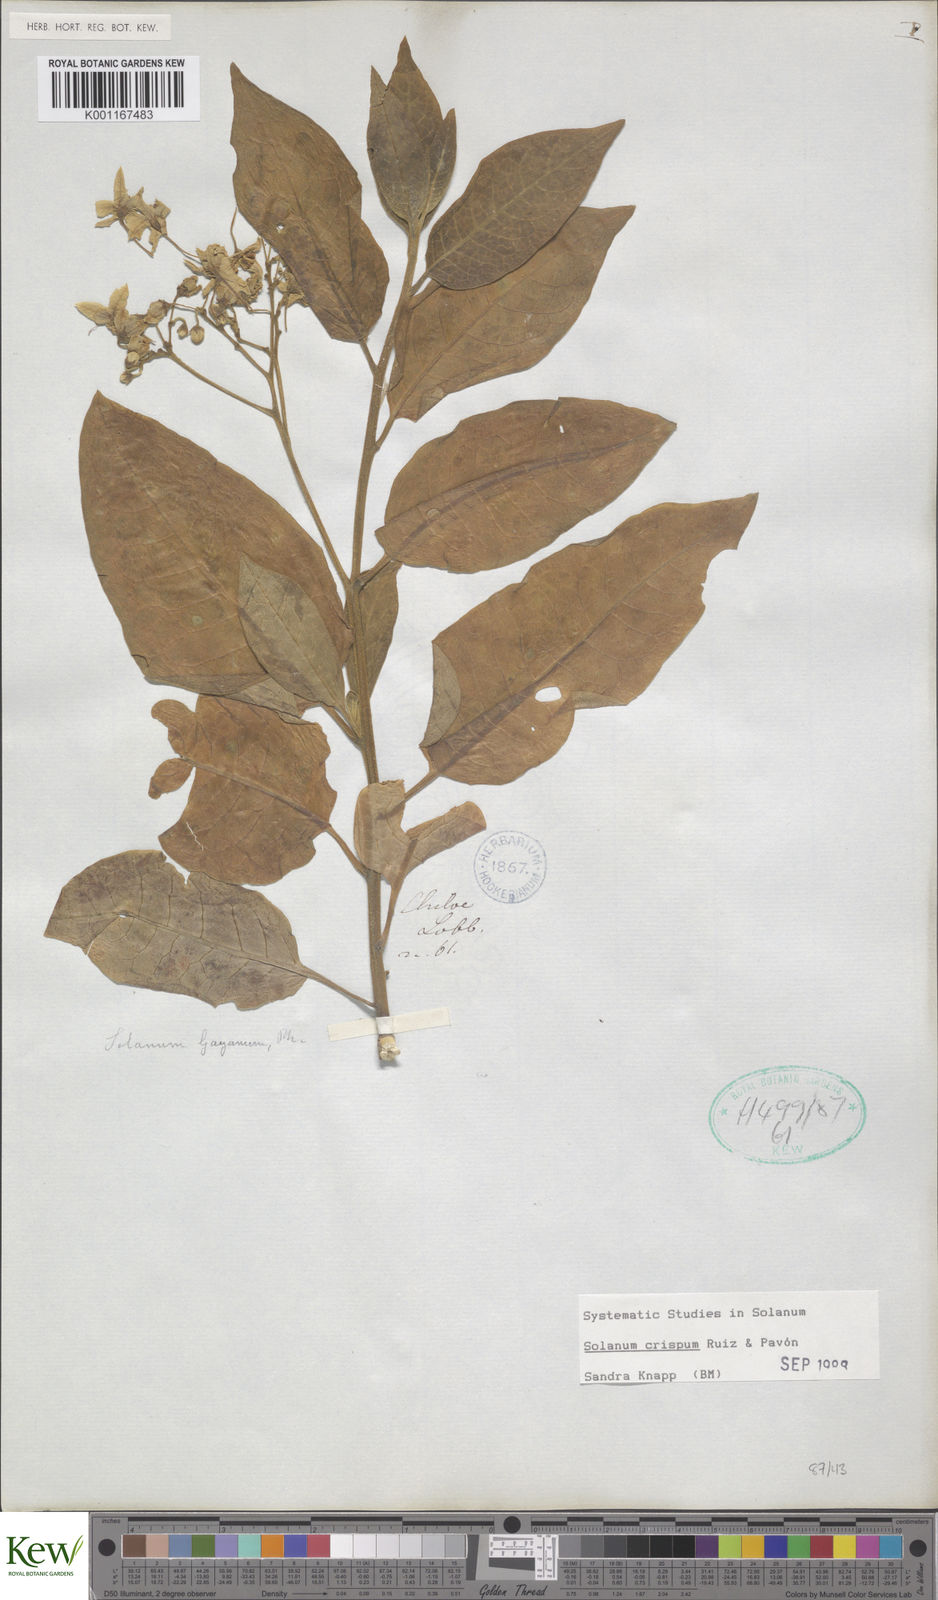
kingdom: Plantae
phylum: Tracheophyta
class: Magnoliopsida
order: Solanales
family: Solanaceae
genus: Solanum
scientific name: Solanum crispum
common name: Chilean nightshade
